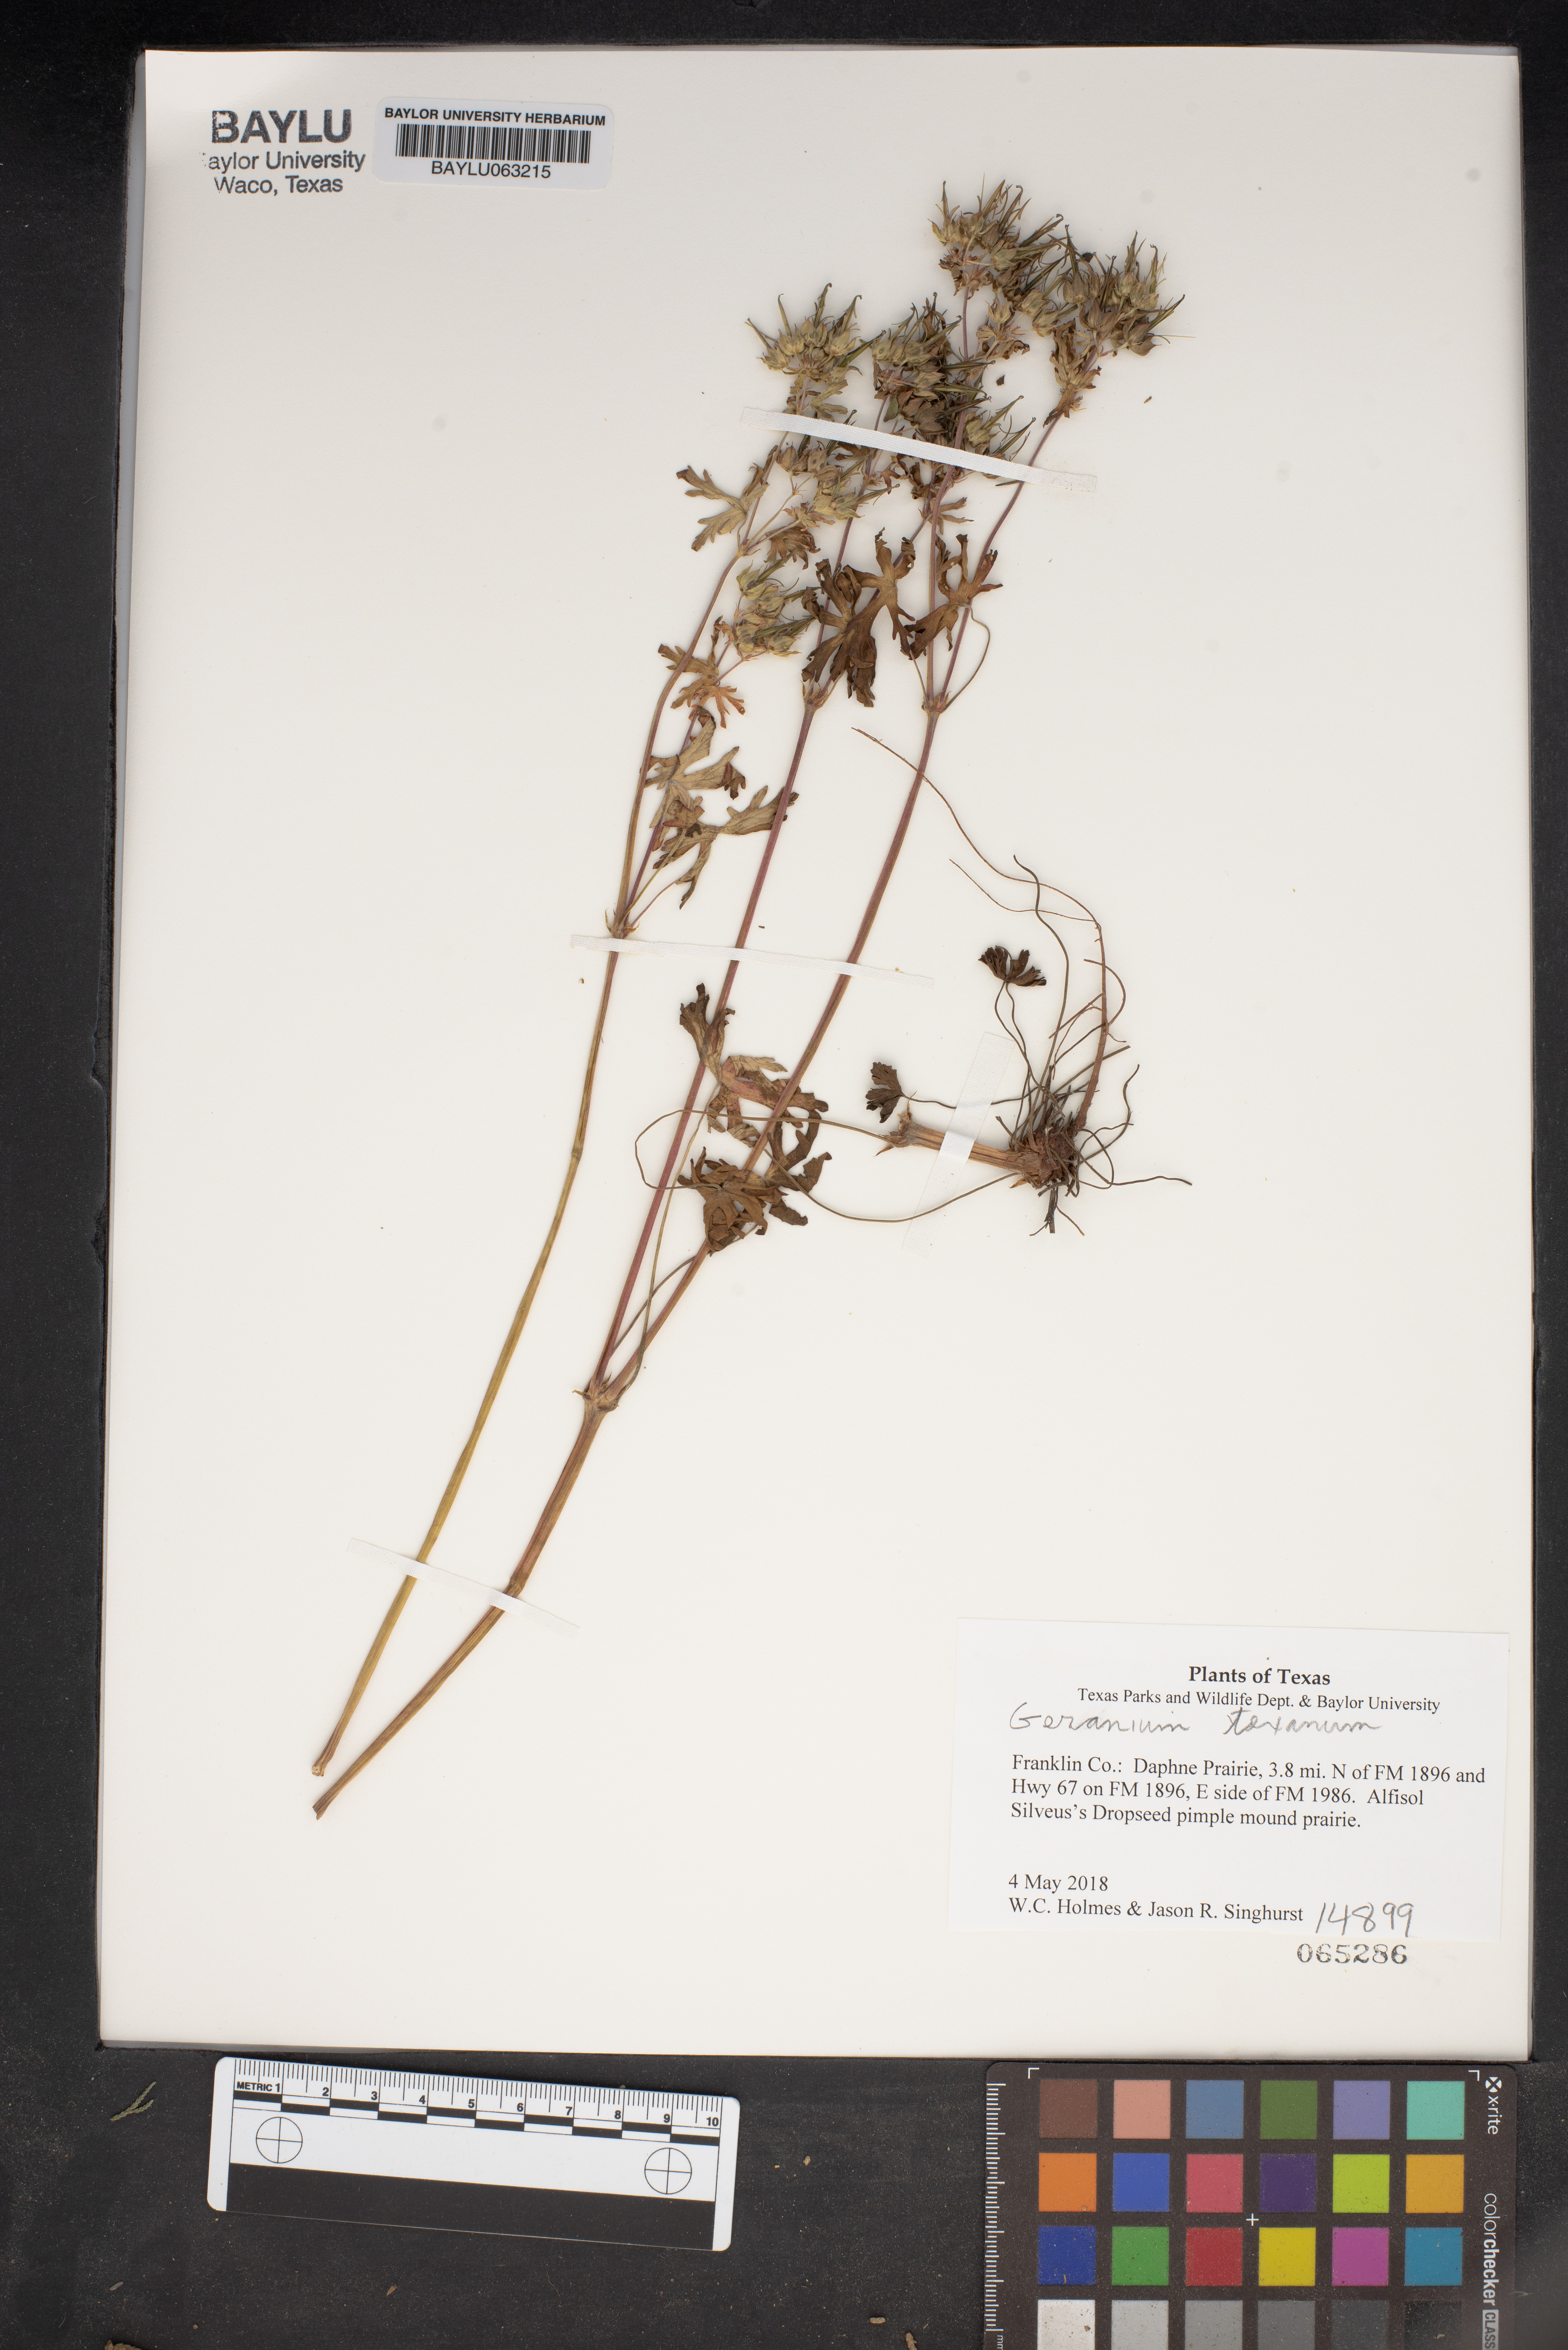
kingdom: Plantae
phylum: Tracheophyta
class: Magnoliopsida
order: Geraniales
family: Geraniaceae
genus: Geranium
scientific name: Geranium texanum
